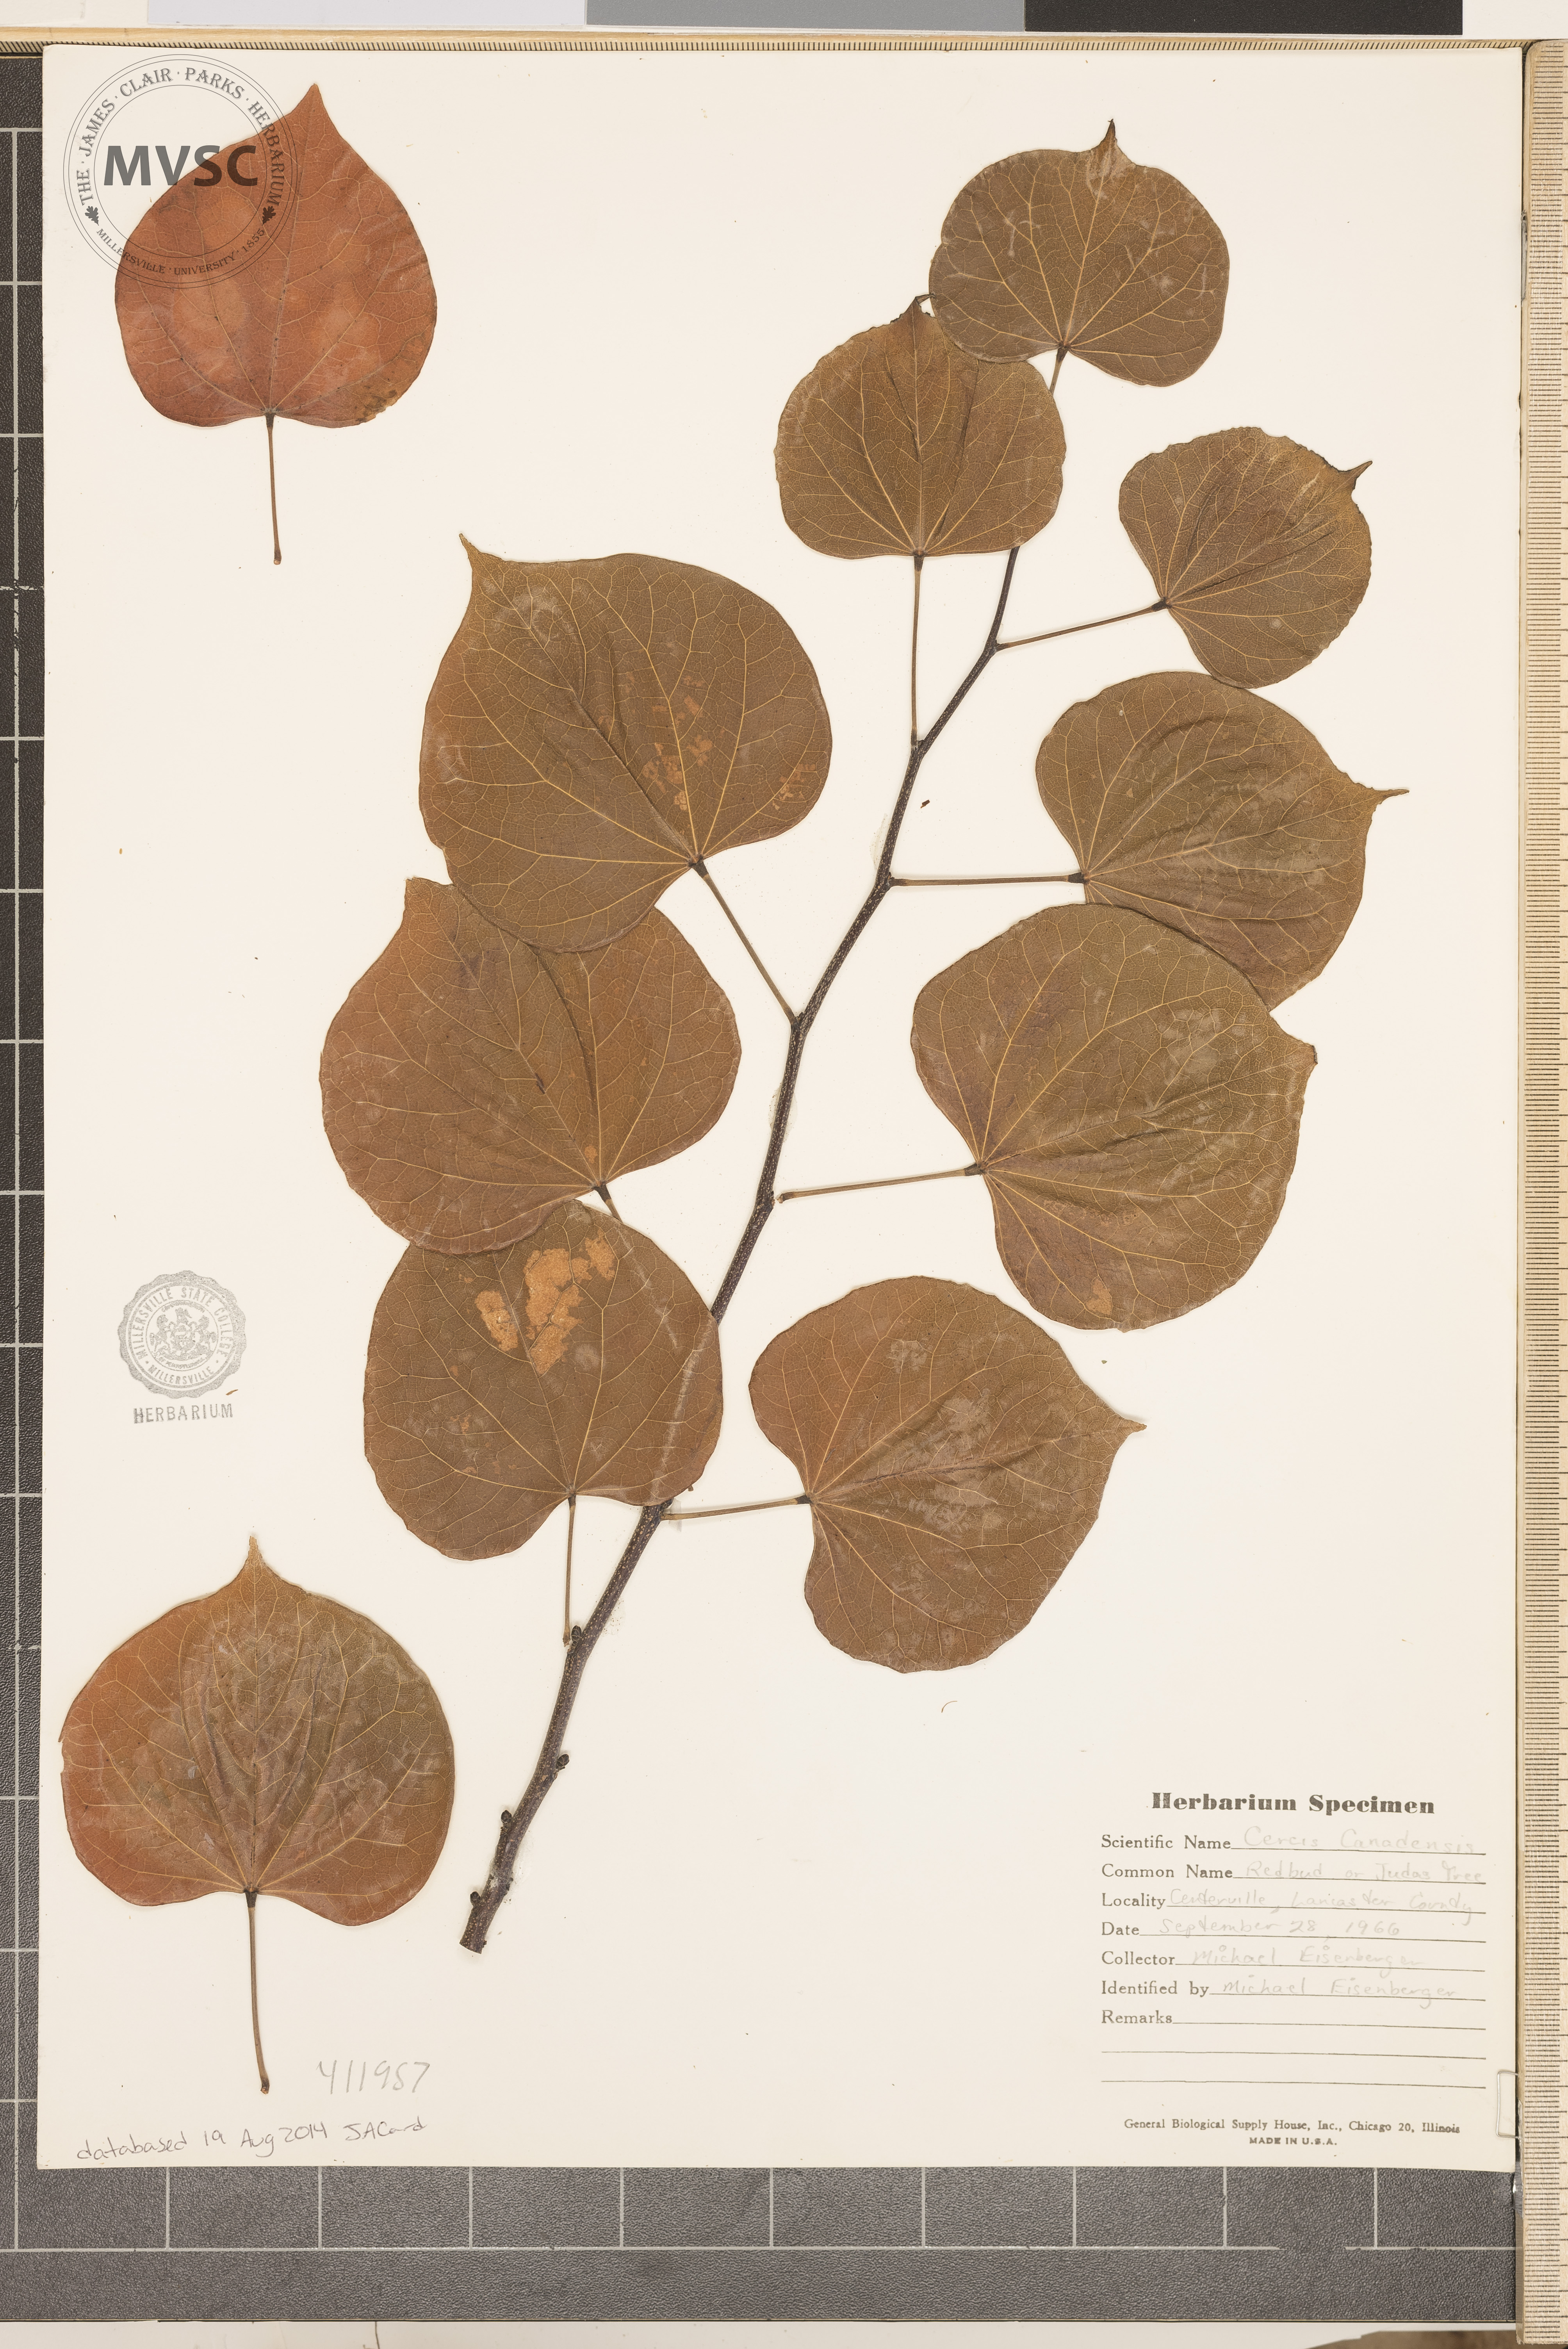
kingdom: Plantae
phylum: Tracheophyta
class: Magnoliopsida
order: Fabales
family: Fabaceae
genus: Cercis
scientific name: Cercis canadensis
